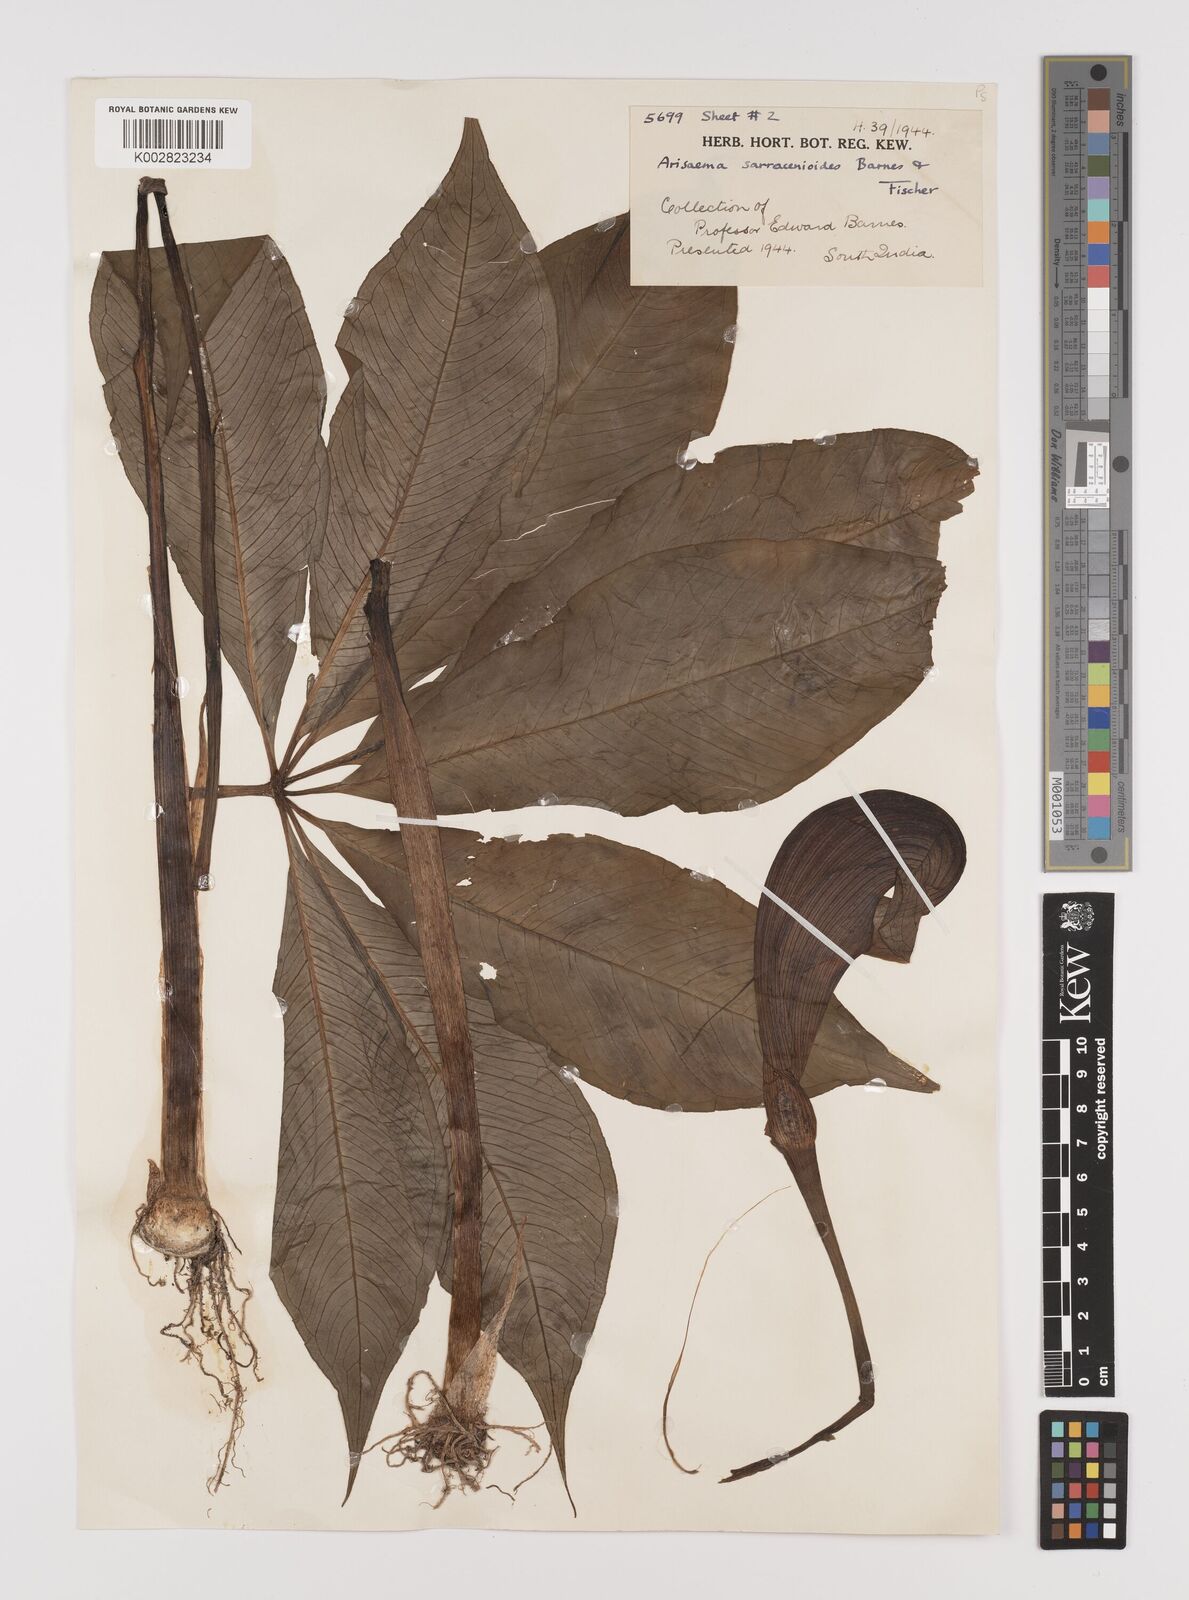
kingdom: Plantae
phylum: Tracheophyta
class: Liliopsida
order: Alismatales
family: Araceae
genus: Arisaema
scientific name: Arisaema sarracenioides
